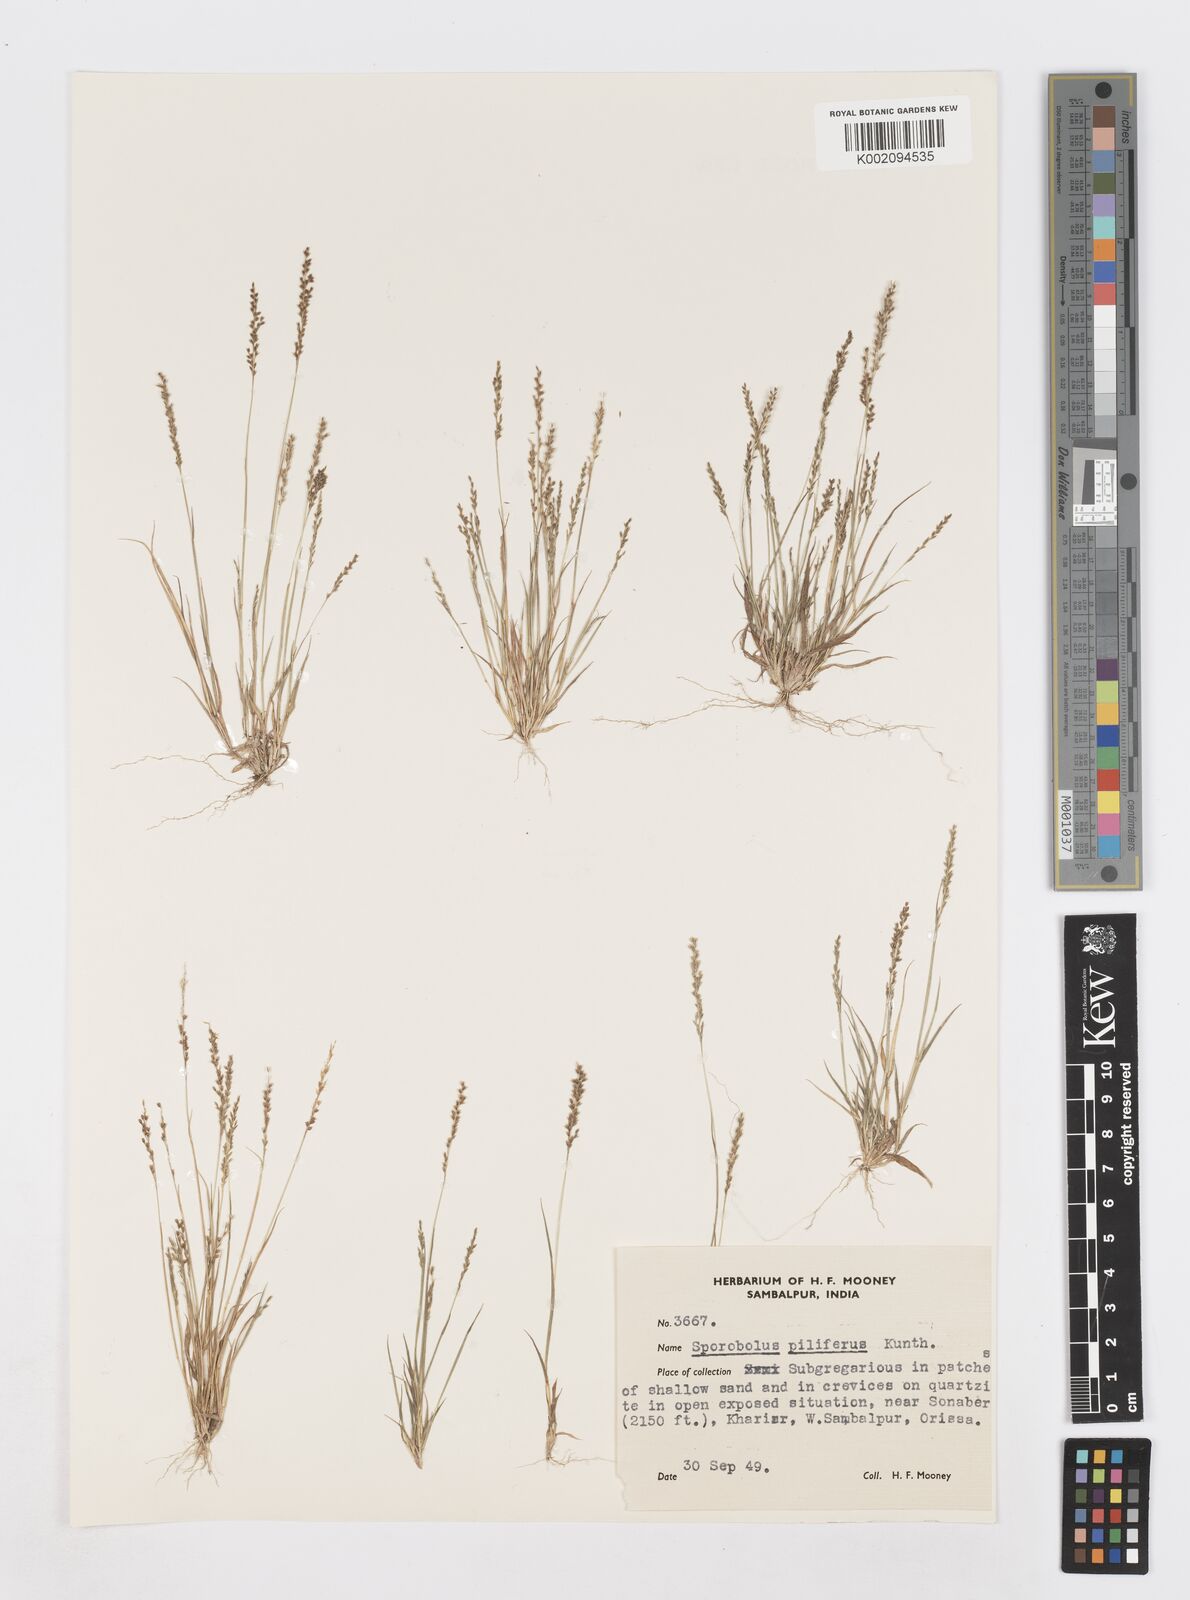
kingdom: Plantae
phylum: Tracheophyta
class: Liliopsida
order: Poales
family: Poaceae
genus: Sporobolus
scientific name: Sporobolus pilifer
